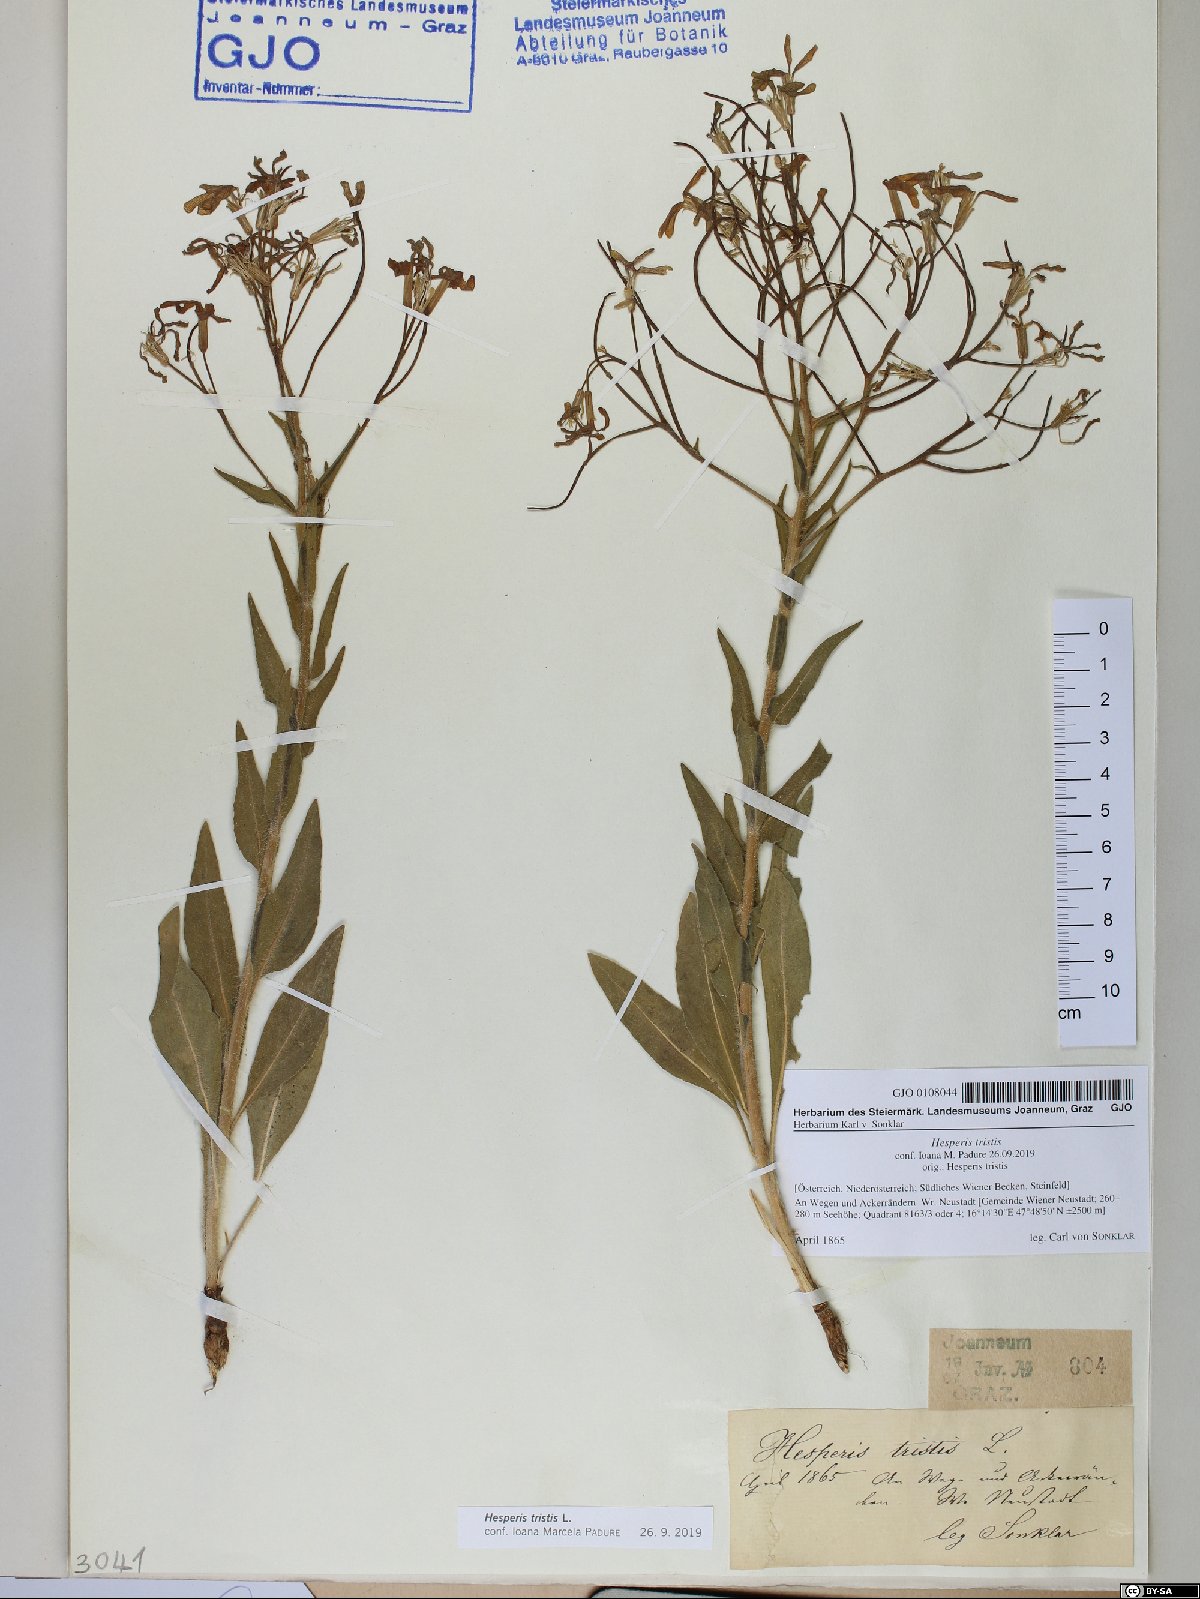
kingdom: Plantae
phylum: Tracheophyta
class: Magnoliopsida
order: Brassicales
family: Brassicaceae
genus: Hesperis
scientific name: Hesperis tristis
